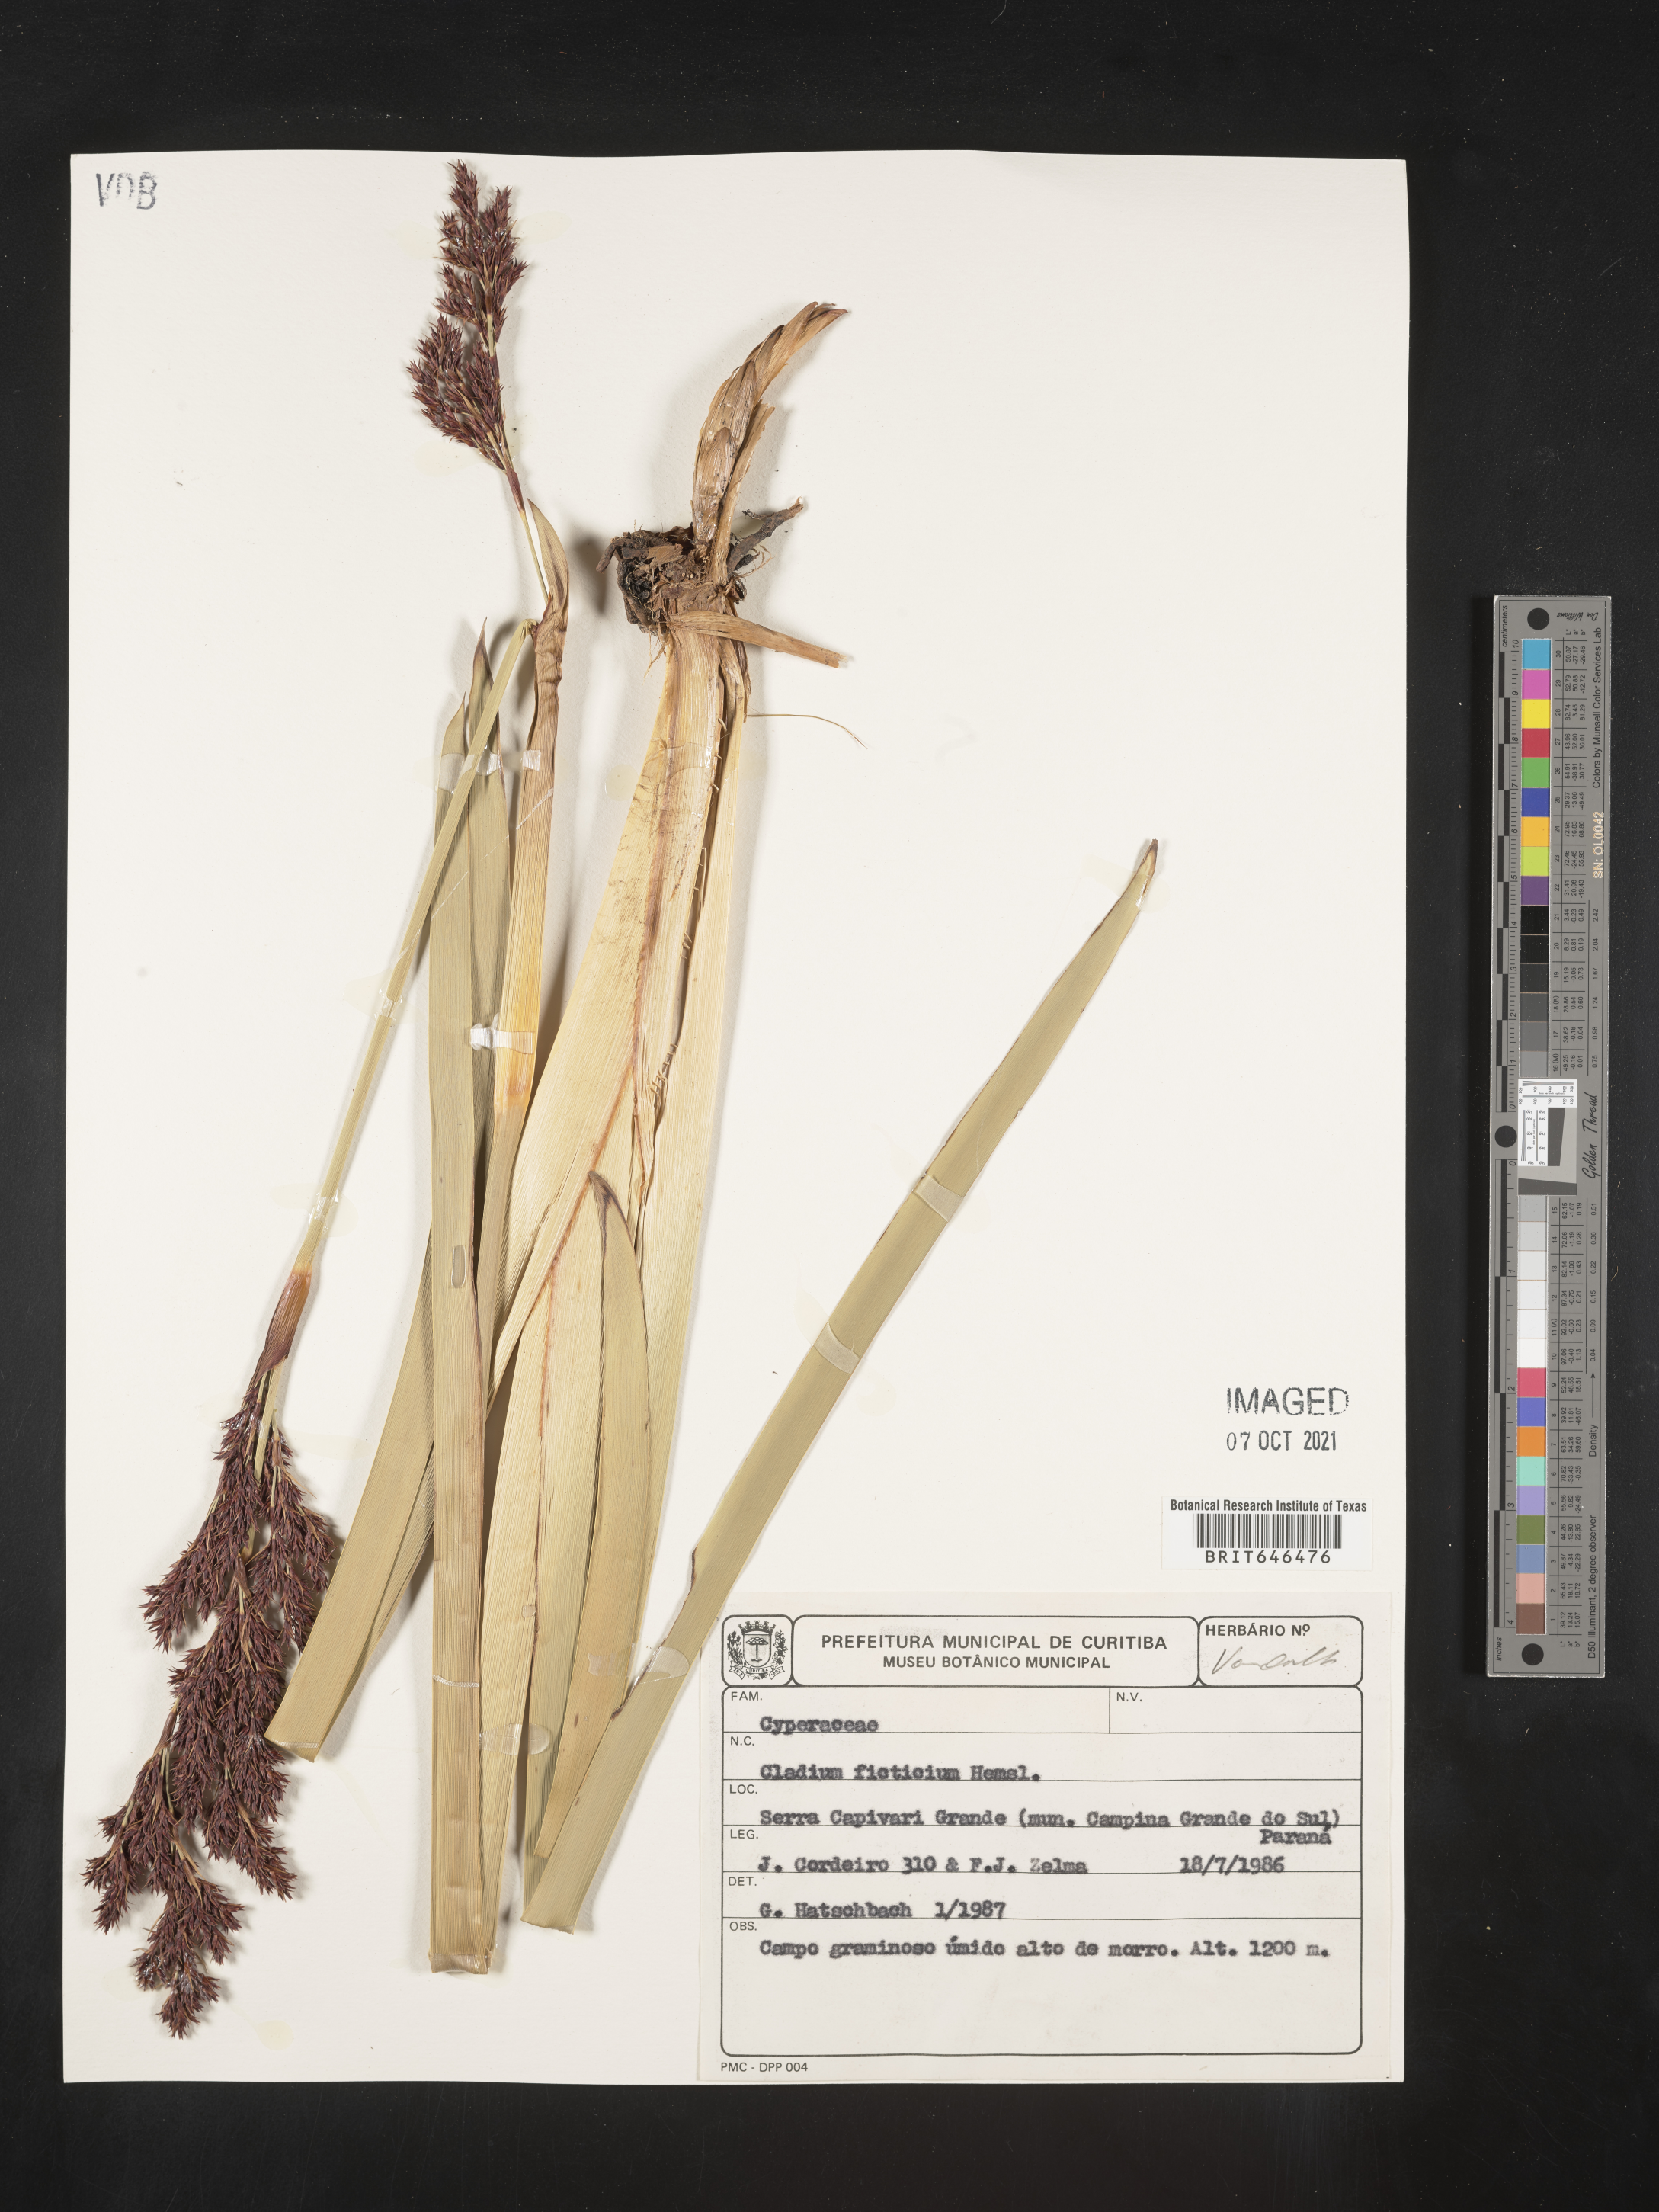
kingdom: Plantae
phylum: Tracheophyta
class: Liliopsida
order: Poales
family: Cyperaceae
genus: Machaerina
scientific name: Machaerina ficticia
